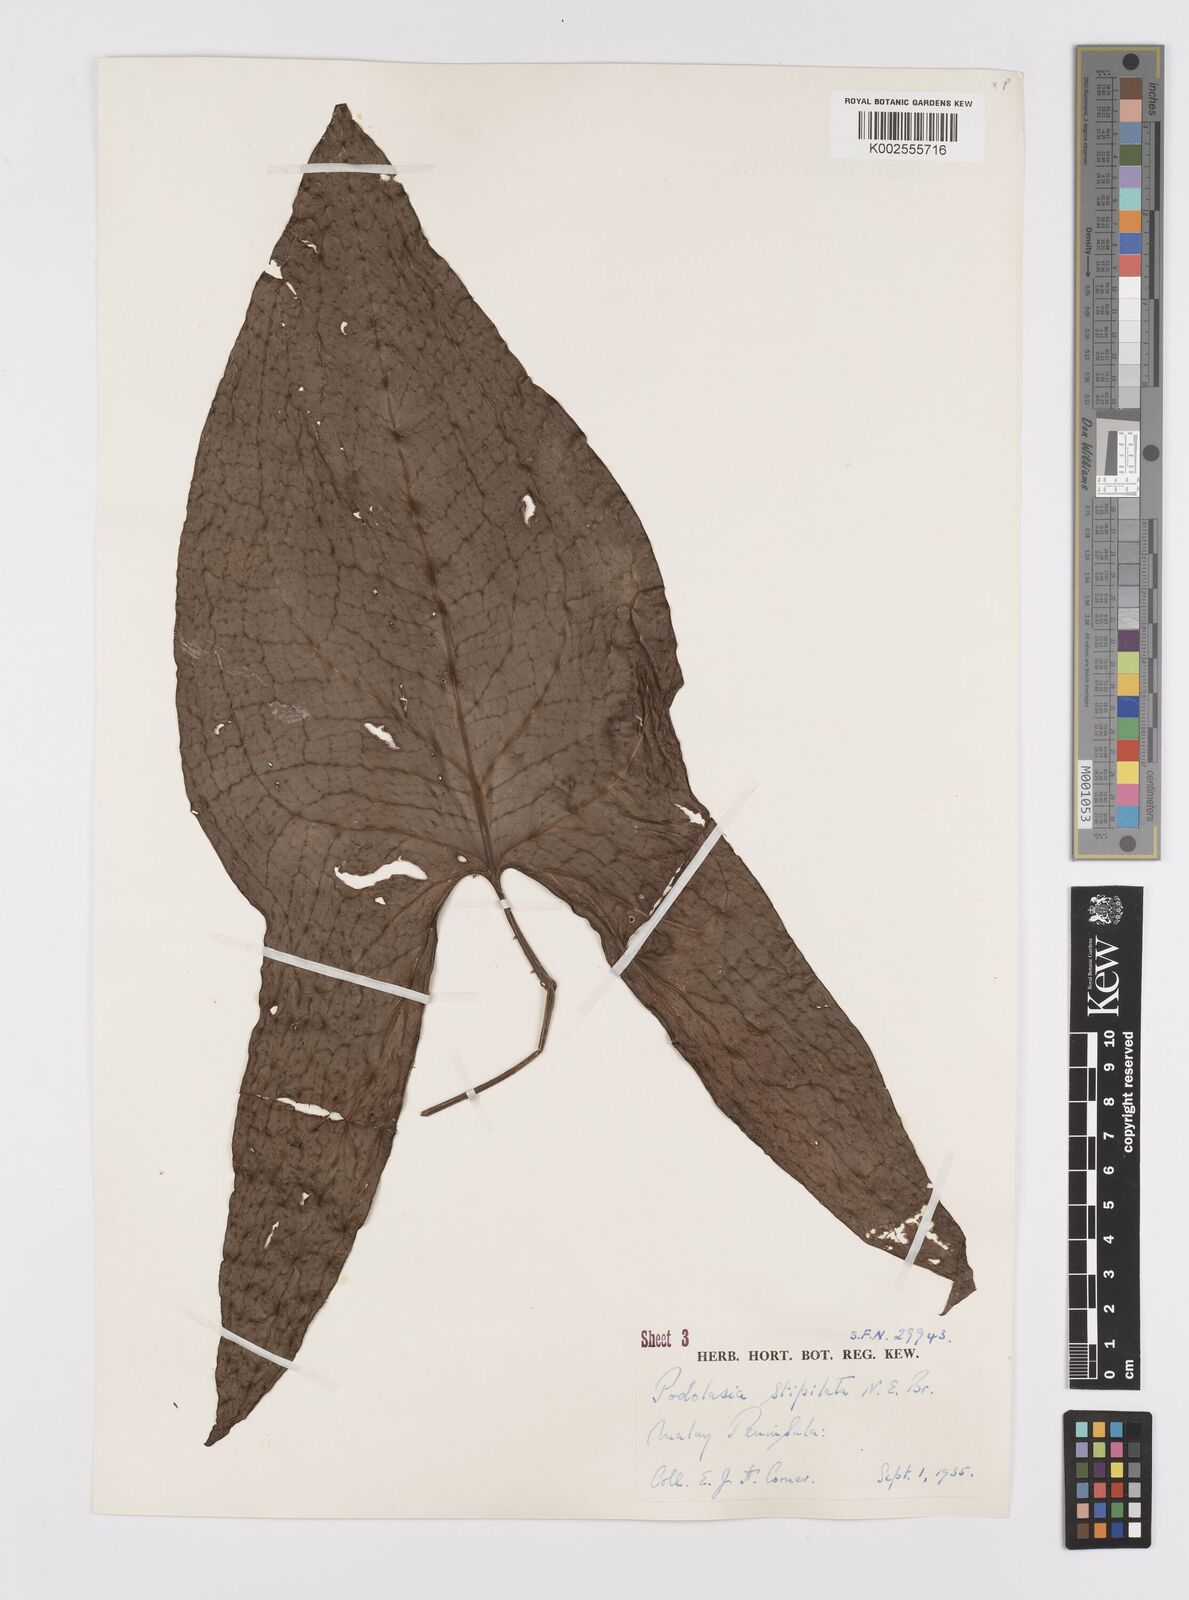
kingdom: Plantae
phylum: Tracheophyta
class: Liliopsida
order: Alismatales
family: Araceae
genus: Podolasia
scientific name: Podolasia stipitata
